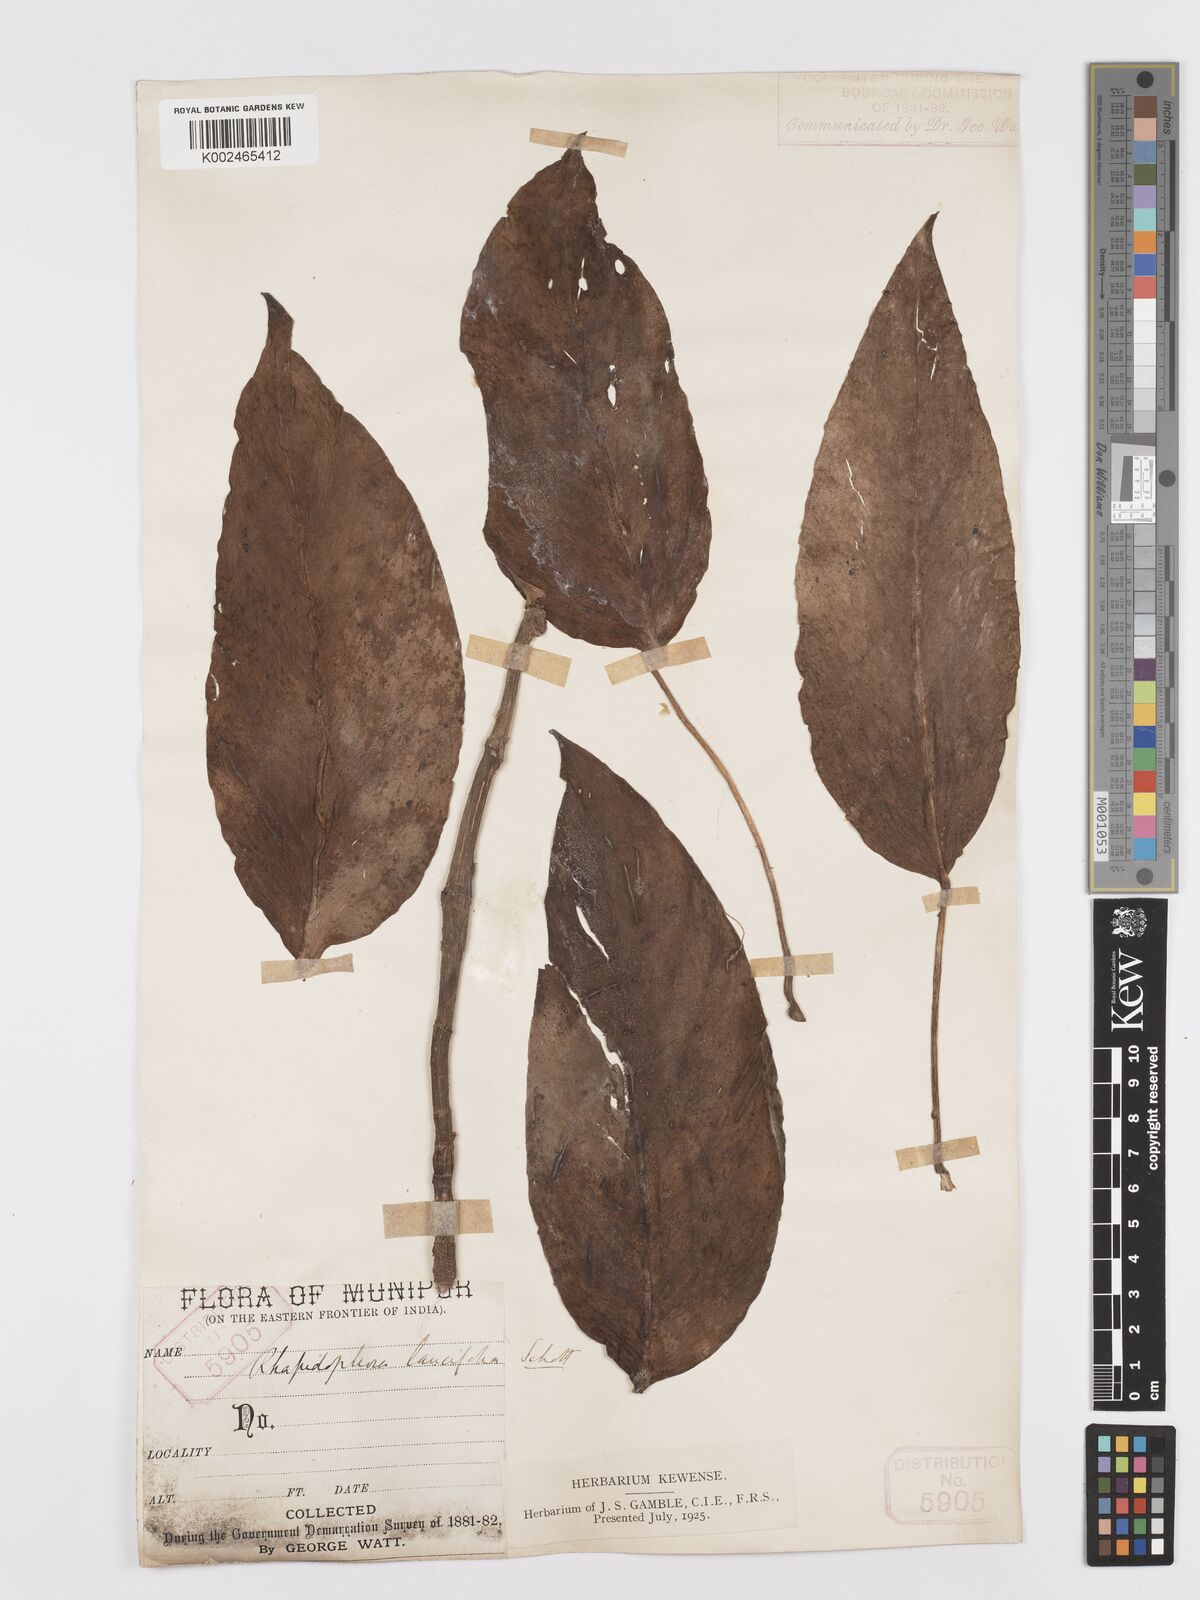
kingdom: Plantae
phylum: Tracheophyta
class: Liliopsida
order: Alismatales
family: Araceae
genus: Rhaphidophora
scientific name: Rhaphidophora peepla
